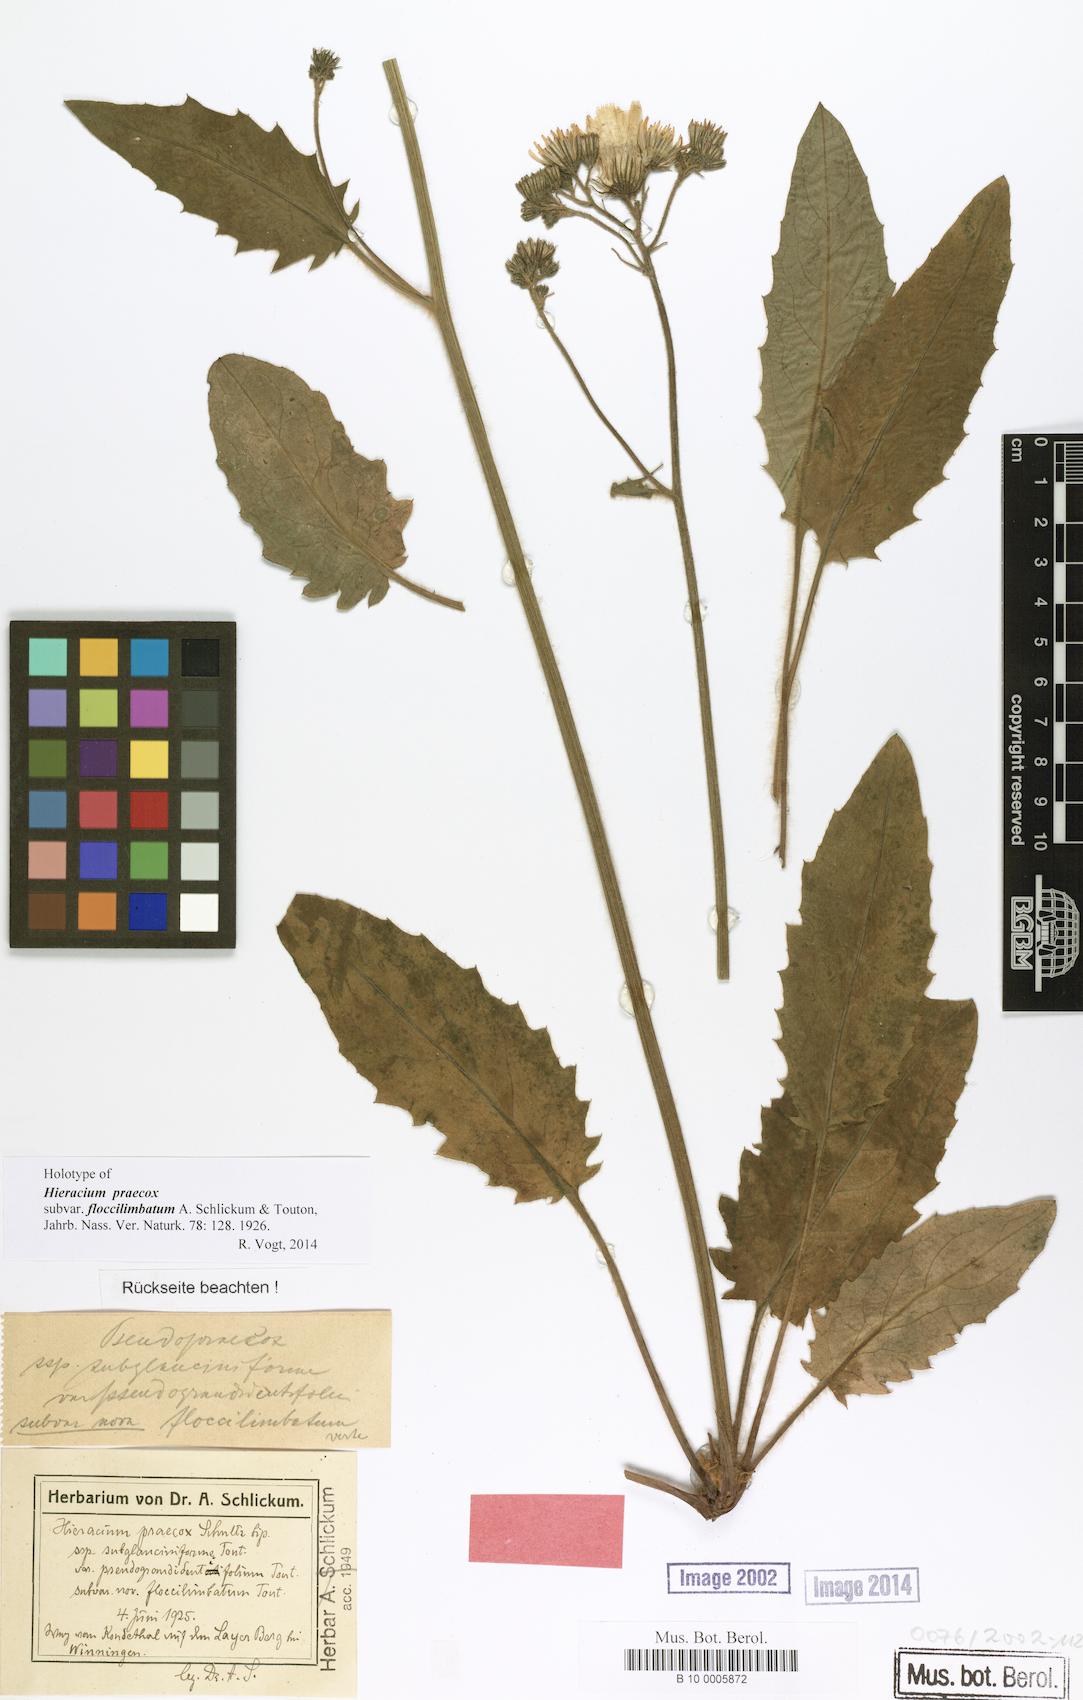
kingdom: Plantae
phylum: Tracheophyta
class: Magnoliopsida
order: Asterales
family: Asteraceae
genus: Hieracium
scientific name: Hieracium praecox
